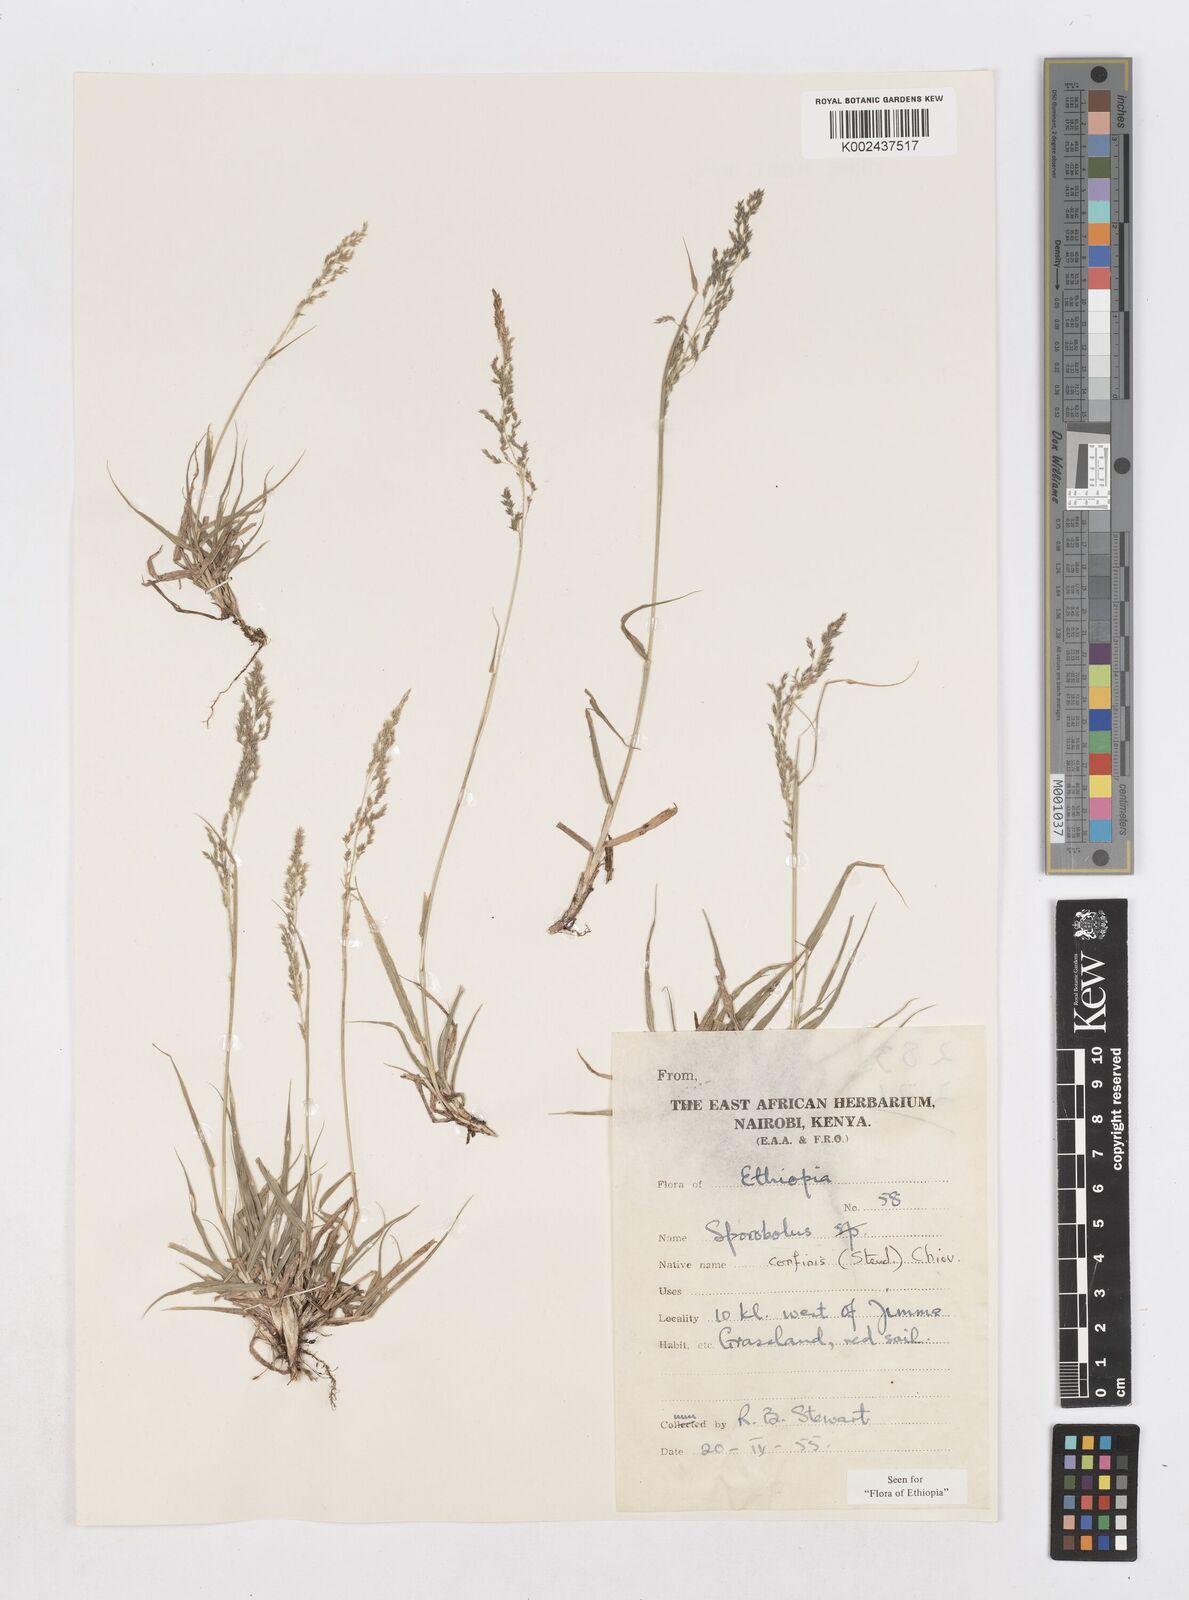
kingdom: Plantae
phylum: Tracheophyta
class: Liliopsida
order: Poales
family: Poaceae
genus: Sporobolus
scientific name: Sporobolus confinis
